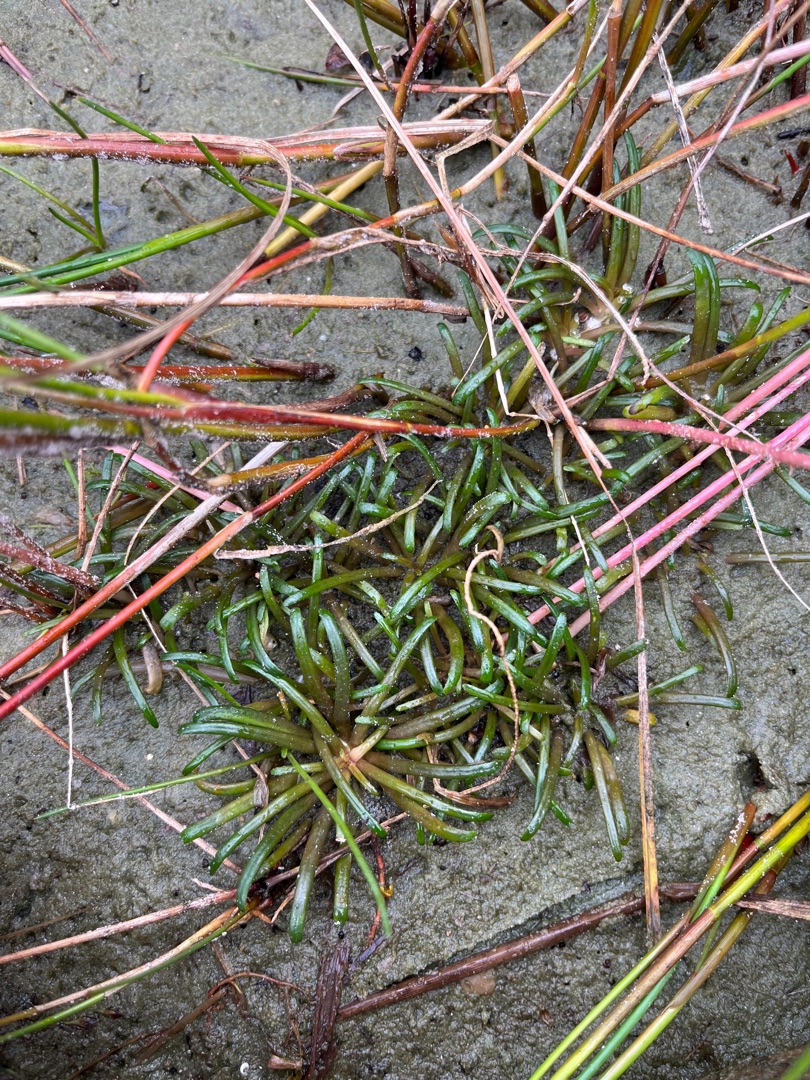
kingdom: Plantae
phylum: Tracheophyta
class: Magnoliopsida
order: Asterales
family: Campanulaceae
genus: Lobelia
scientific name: Lobelia dortmanna
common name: Tvepibet lobelie
